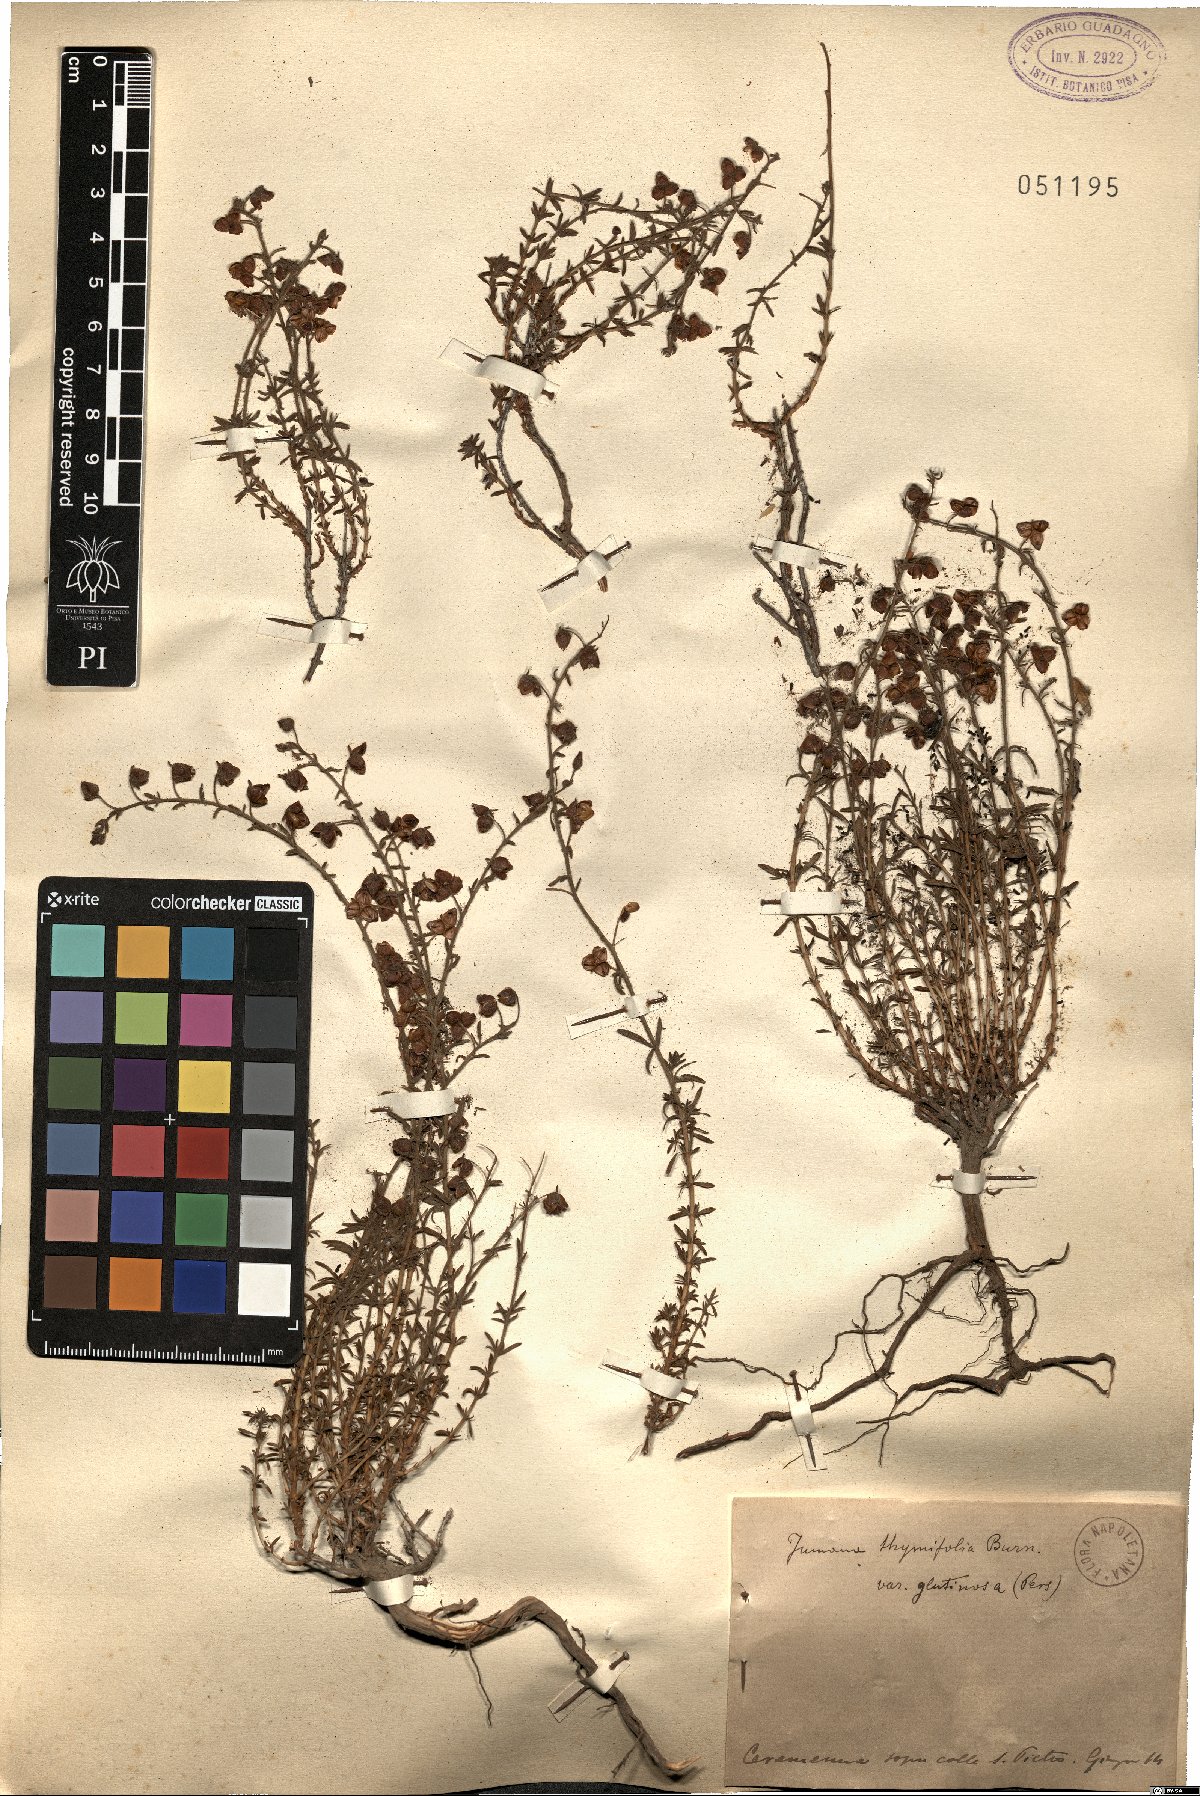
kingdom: Plantae
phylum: Tracheophyta
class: Magnoliopsida
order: Malvales
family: Cistaceae
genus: Fumana
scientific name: Fumana laevipes
